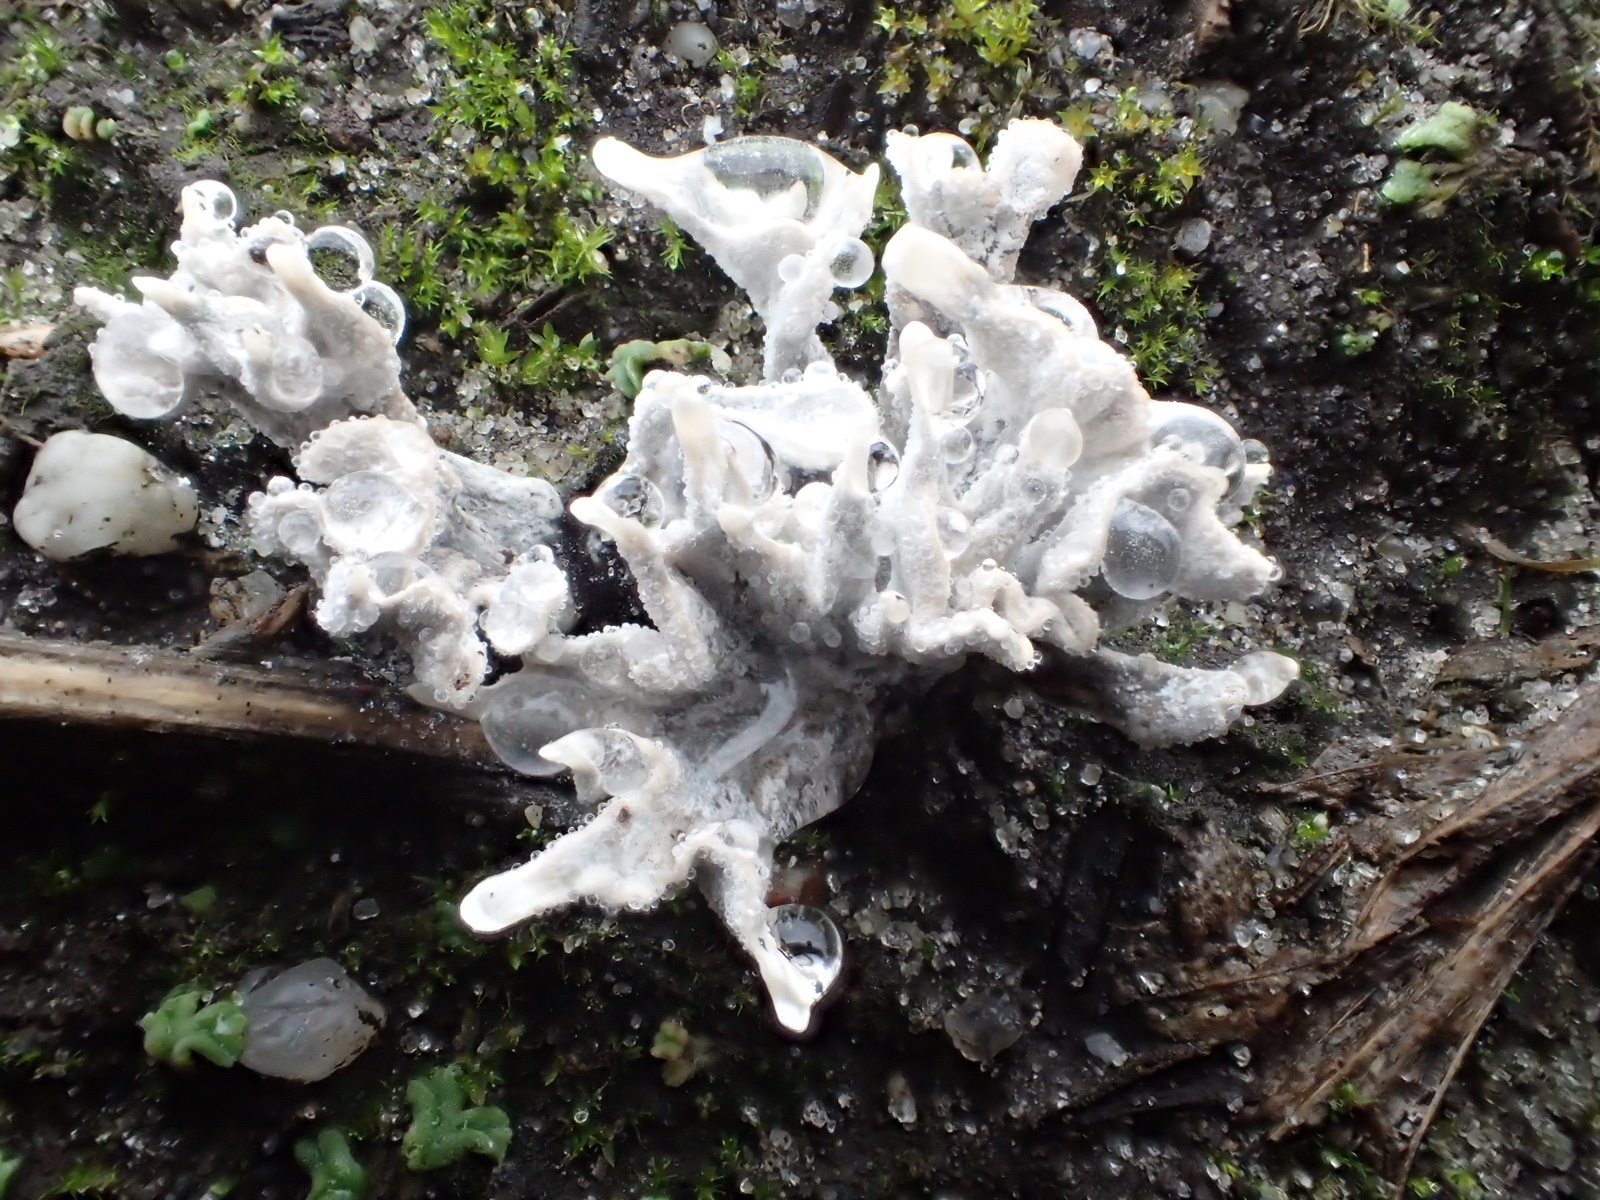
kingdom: Fungi
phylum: Ascomycota
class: Sordariomycetes
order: Xylariales
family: Xylariaceae
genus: Xylaria
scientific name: Xylaria hypoxylon
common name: grenet stødsvamp
